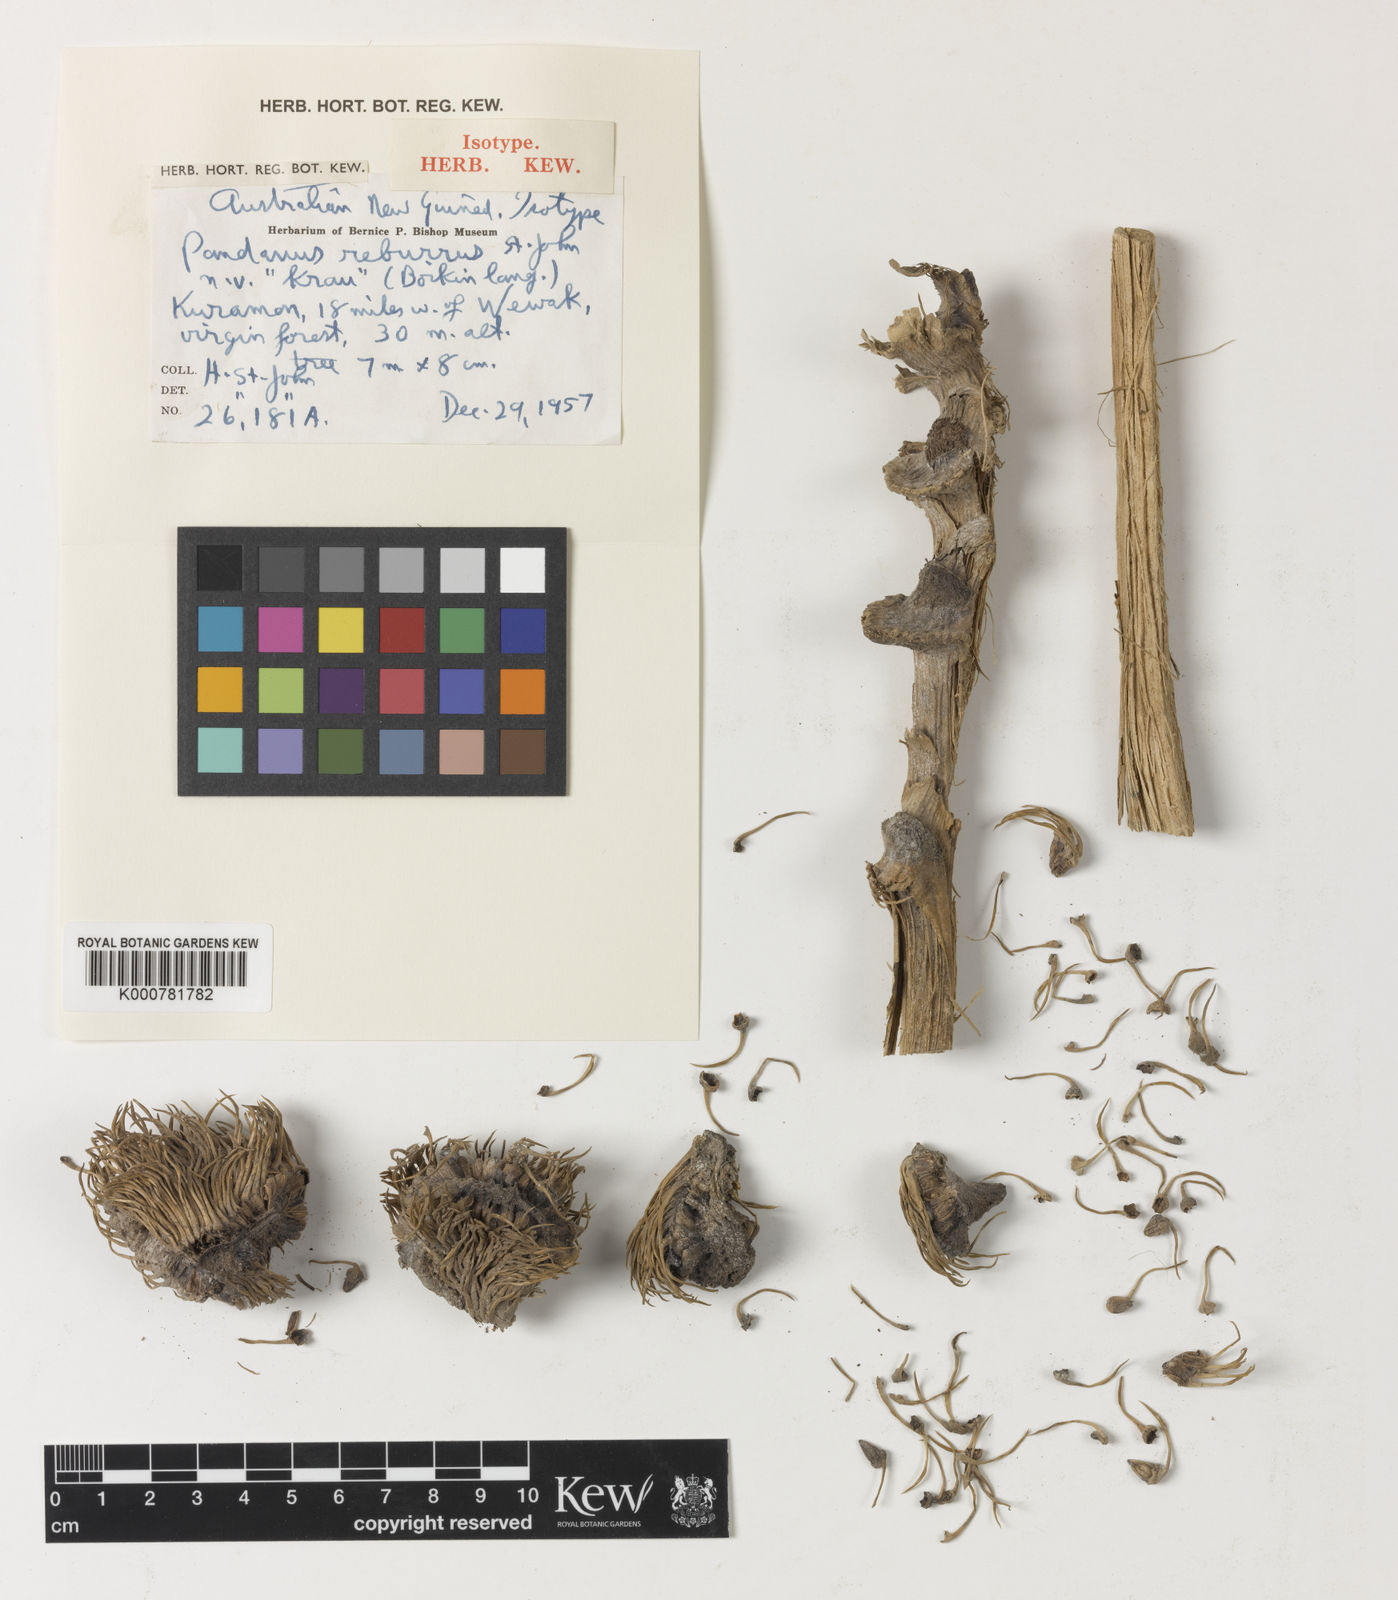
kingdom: Plantae
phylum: Tracheophyta
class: Liliopsida
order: Pandanales
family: Pandanaceae
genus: Pandanus
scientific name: Pandanus
